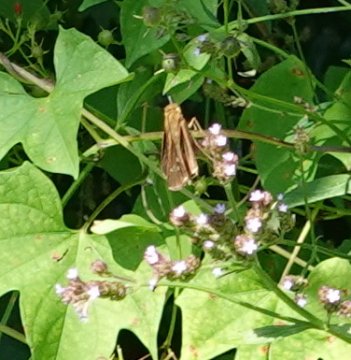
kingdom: Animalia
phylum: Arthropoda
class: Insecta
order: Lepidoptera
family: Hesperiidae
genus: Panoquina
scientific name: Panoquina ocola
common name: Ocola Skipper
